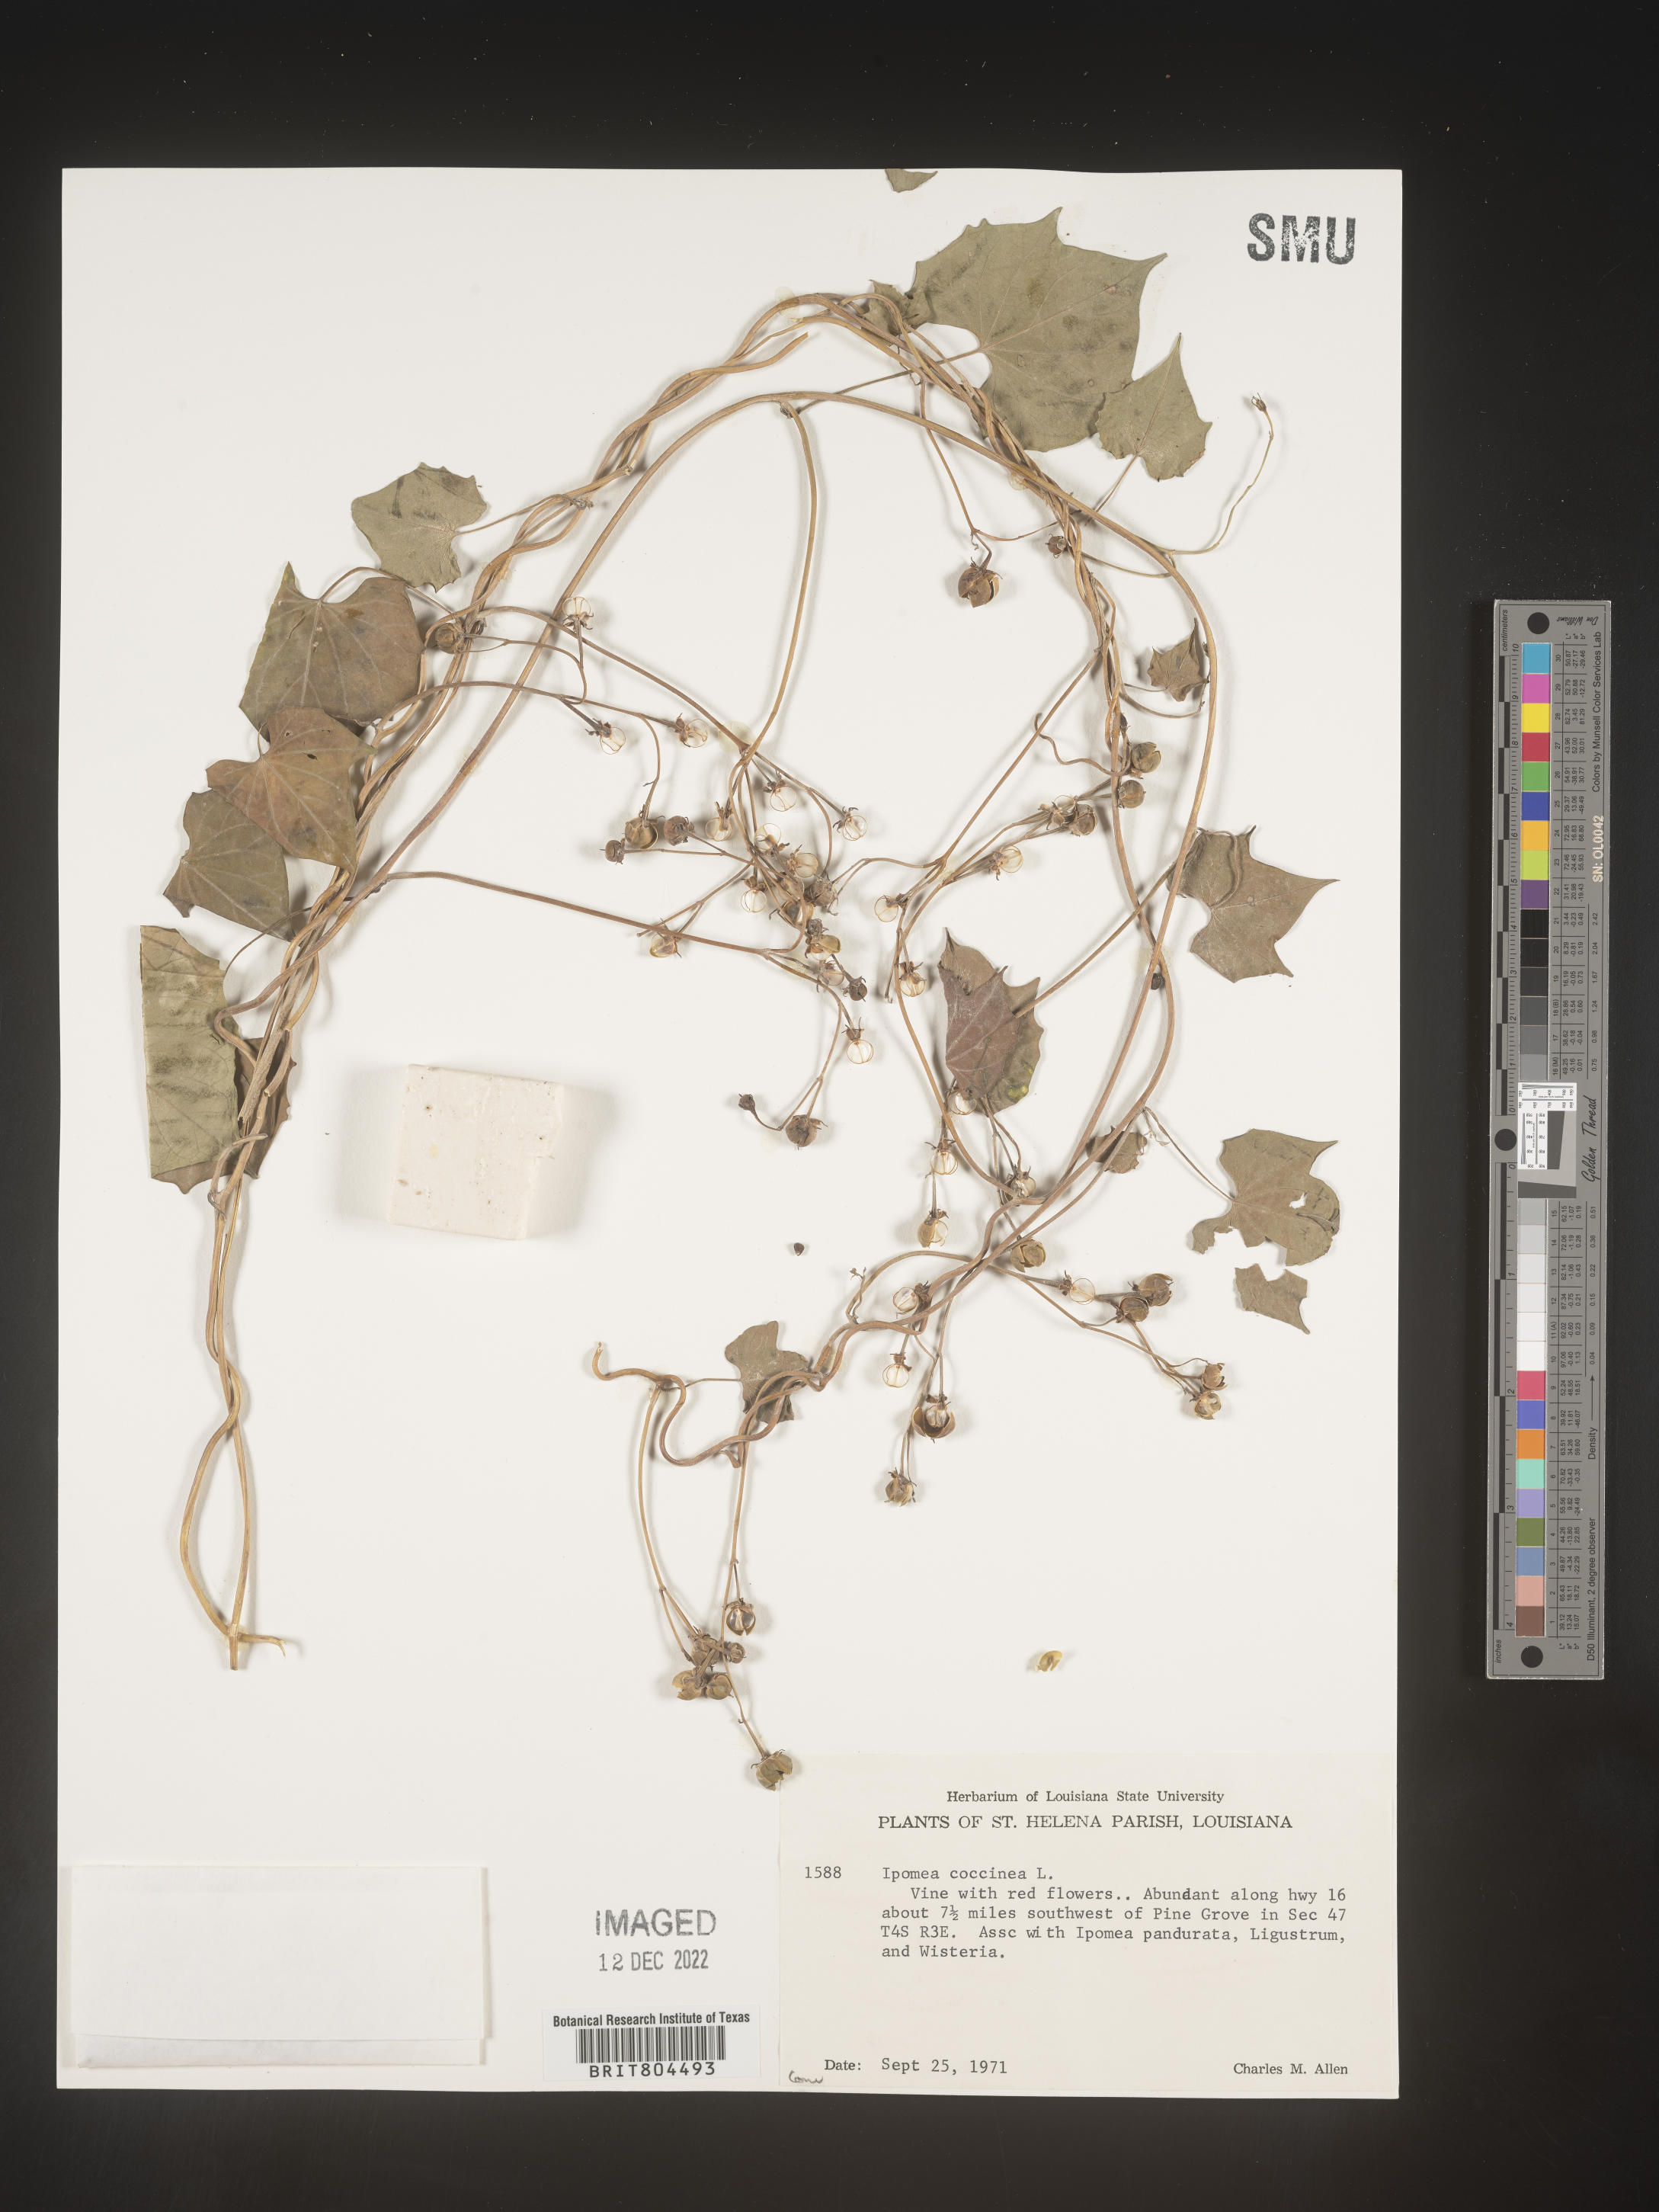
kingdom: Plantae
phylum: Tracheophyta
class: Magnoliopsida
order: Solanales
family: Convolvulaceae
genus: Ipomoea
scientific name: Ipomoea coccinea
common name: Red morning-glory
